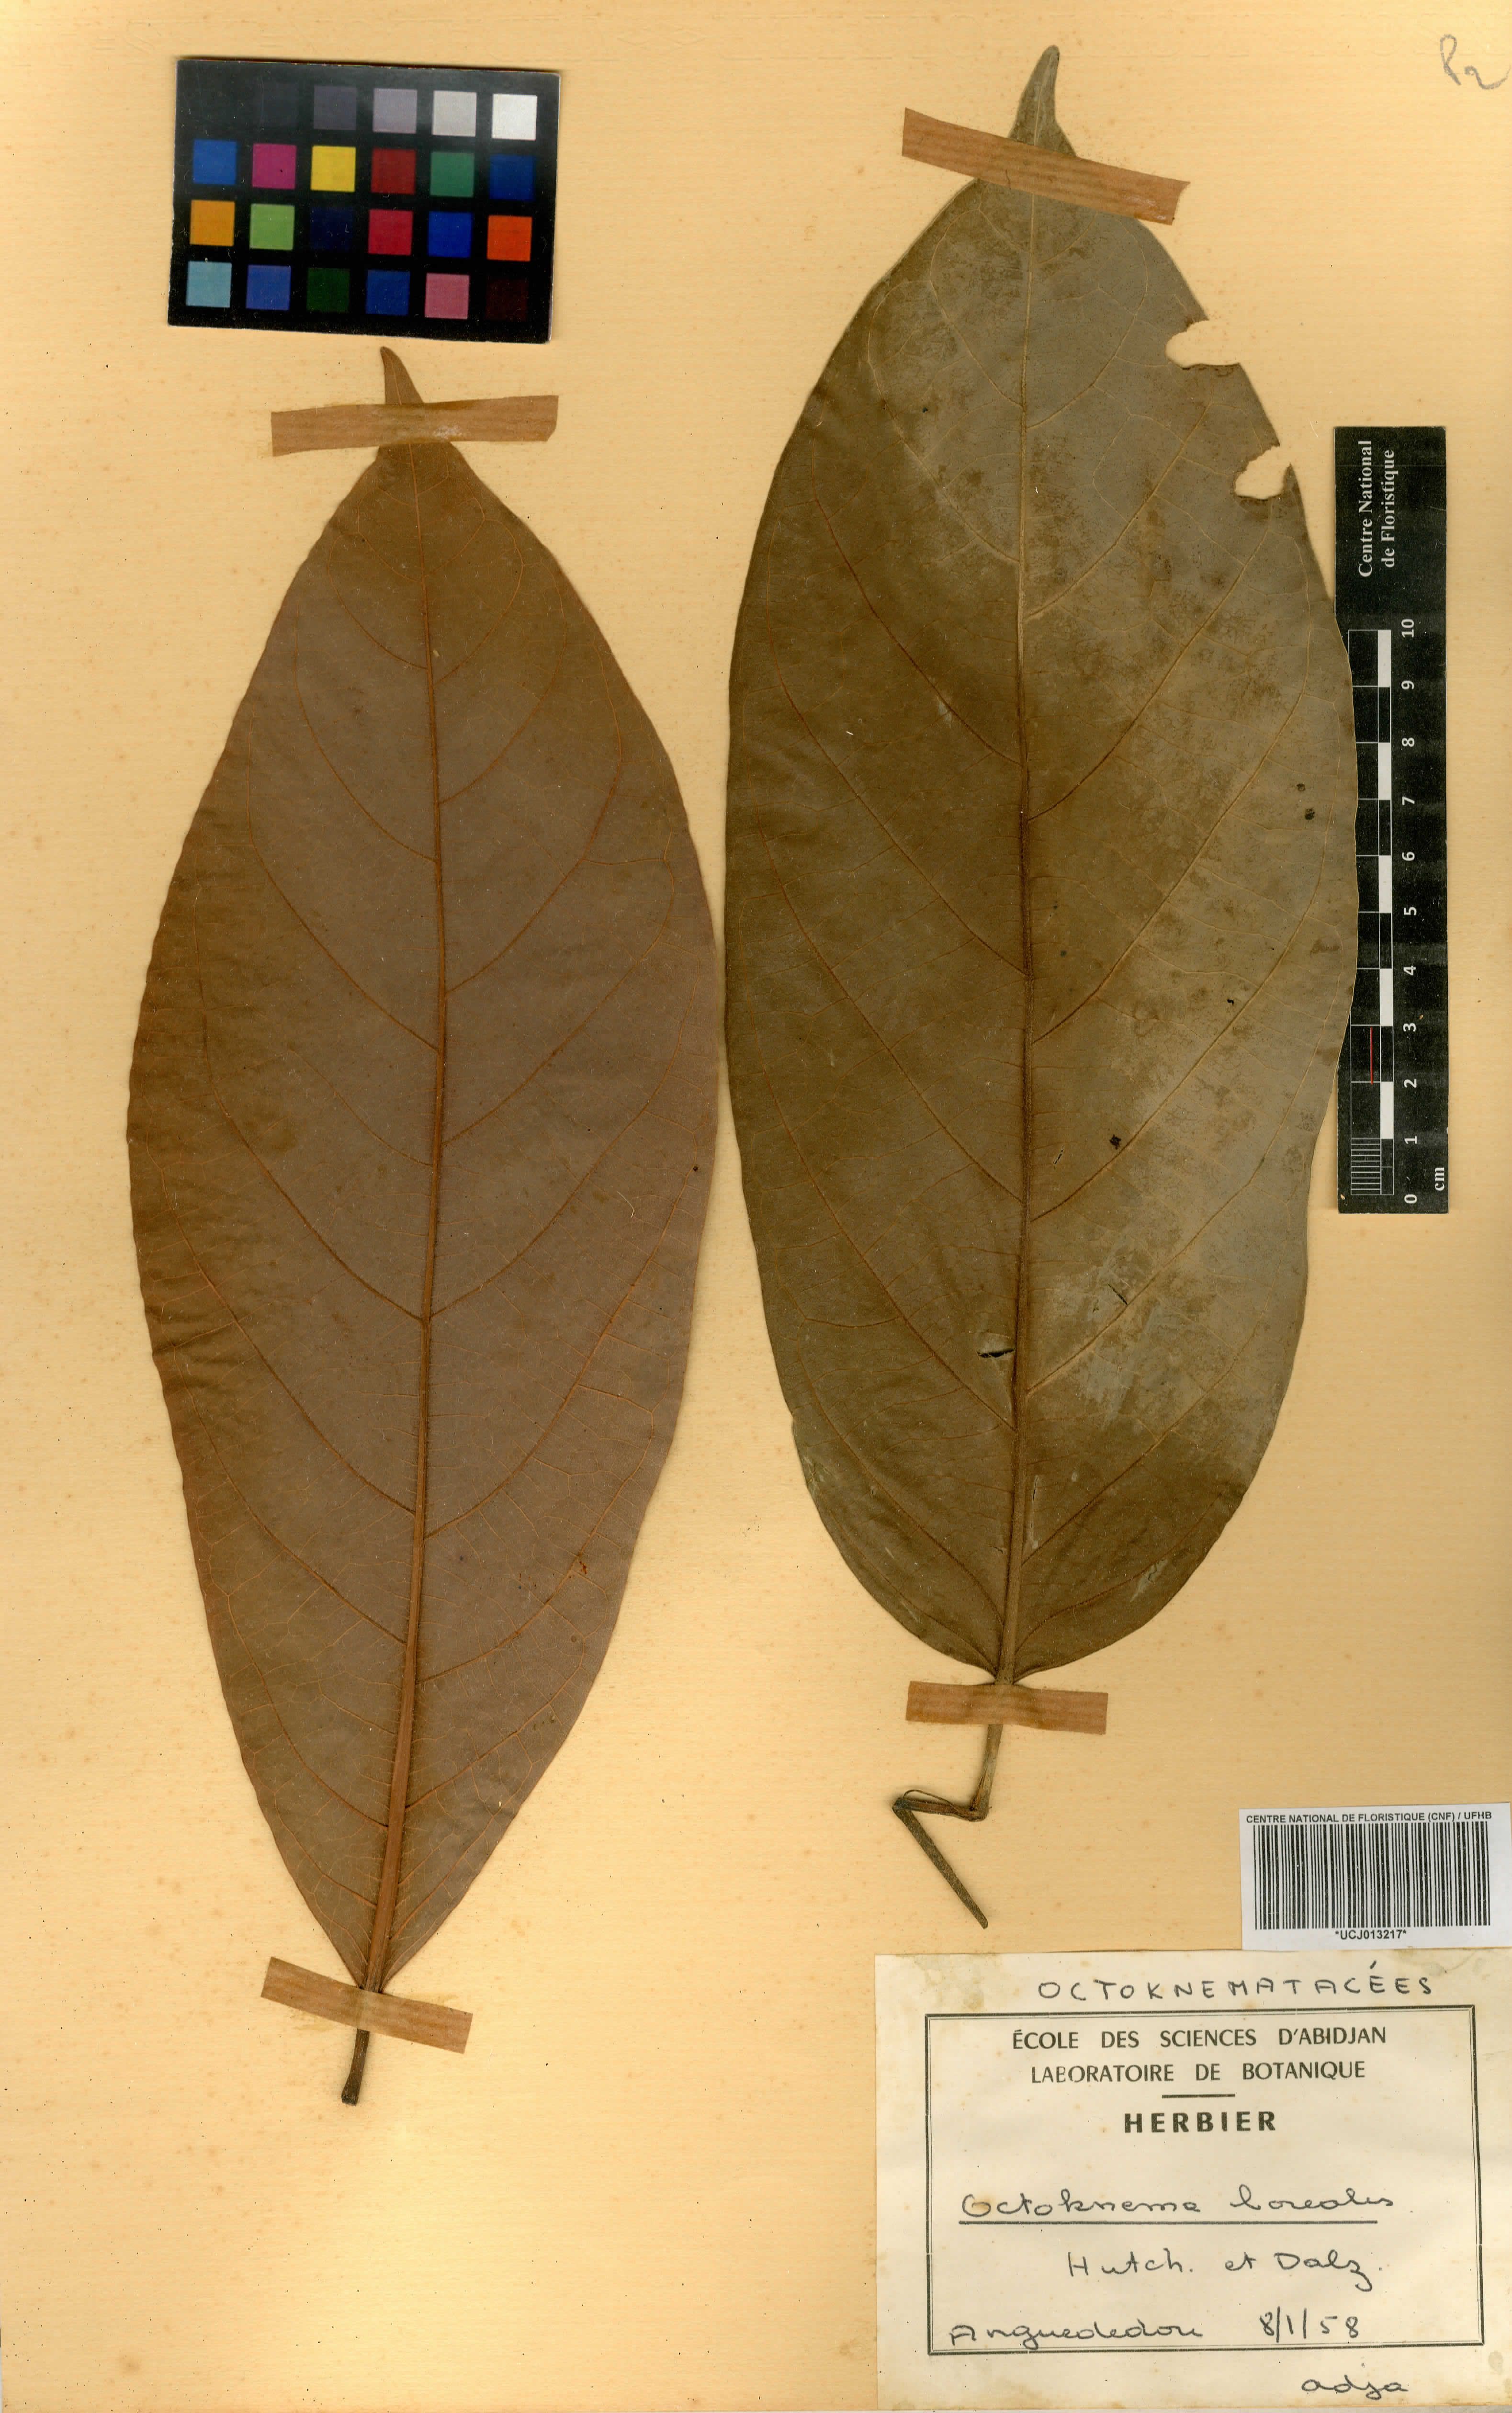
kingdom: Plantae
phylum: Tracheophyta
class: Magnoliopsida
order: Santalales
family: Octoknemaceae
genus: Octoknema
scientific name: Octoknema borealis
